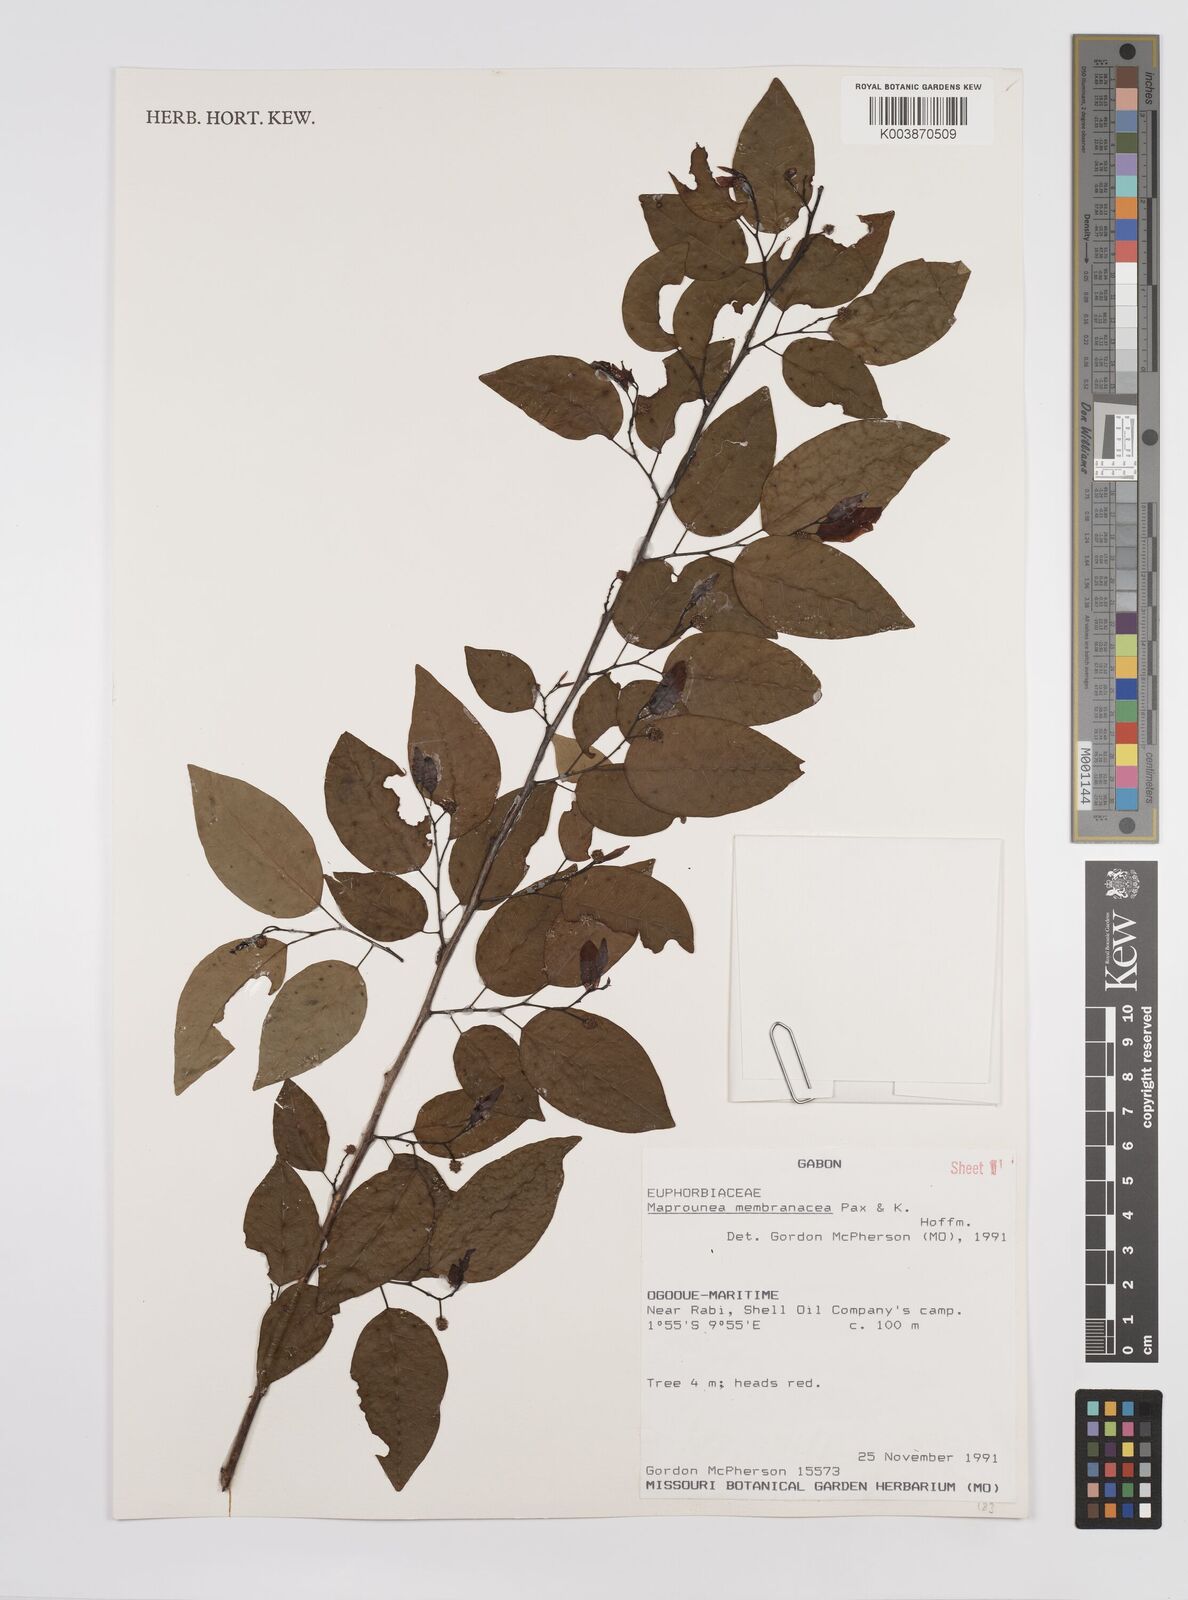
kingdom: Plantae
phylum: Tracheophyta
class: Magnoliopsida
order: Malpighiales
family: Euphorbiaceae
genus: Maprounea
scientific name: Maprounea membranacea
